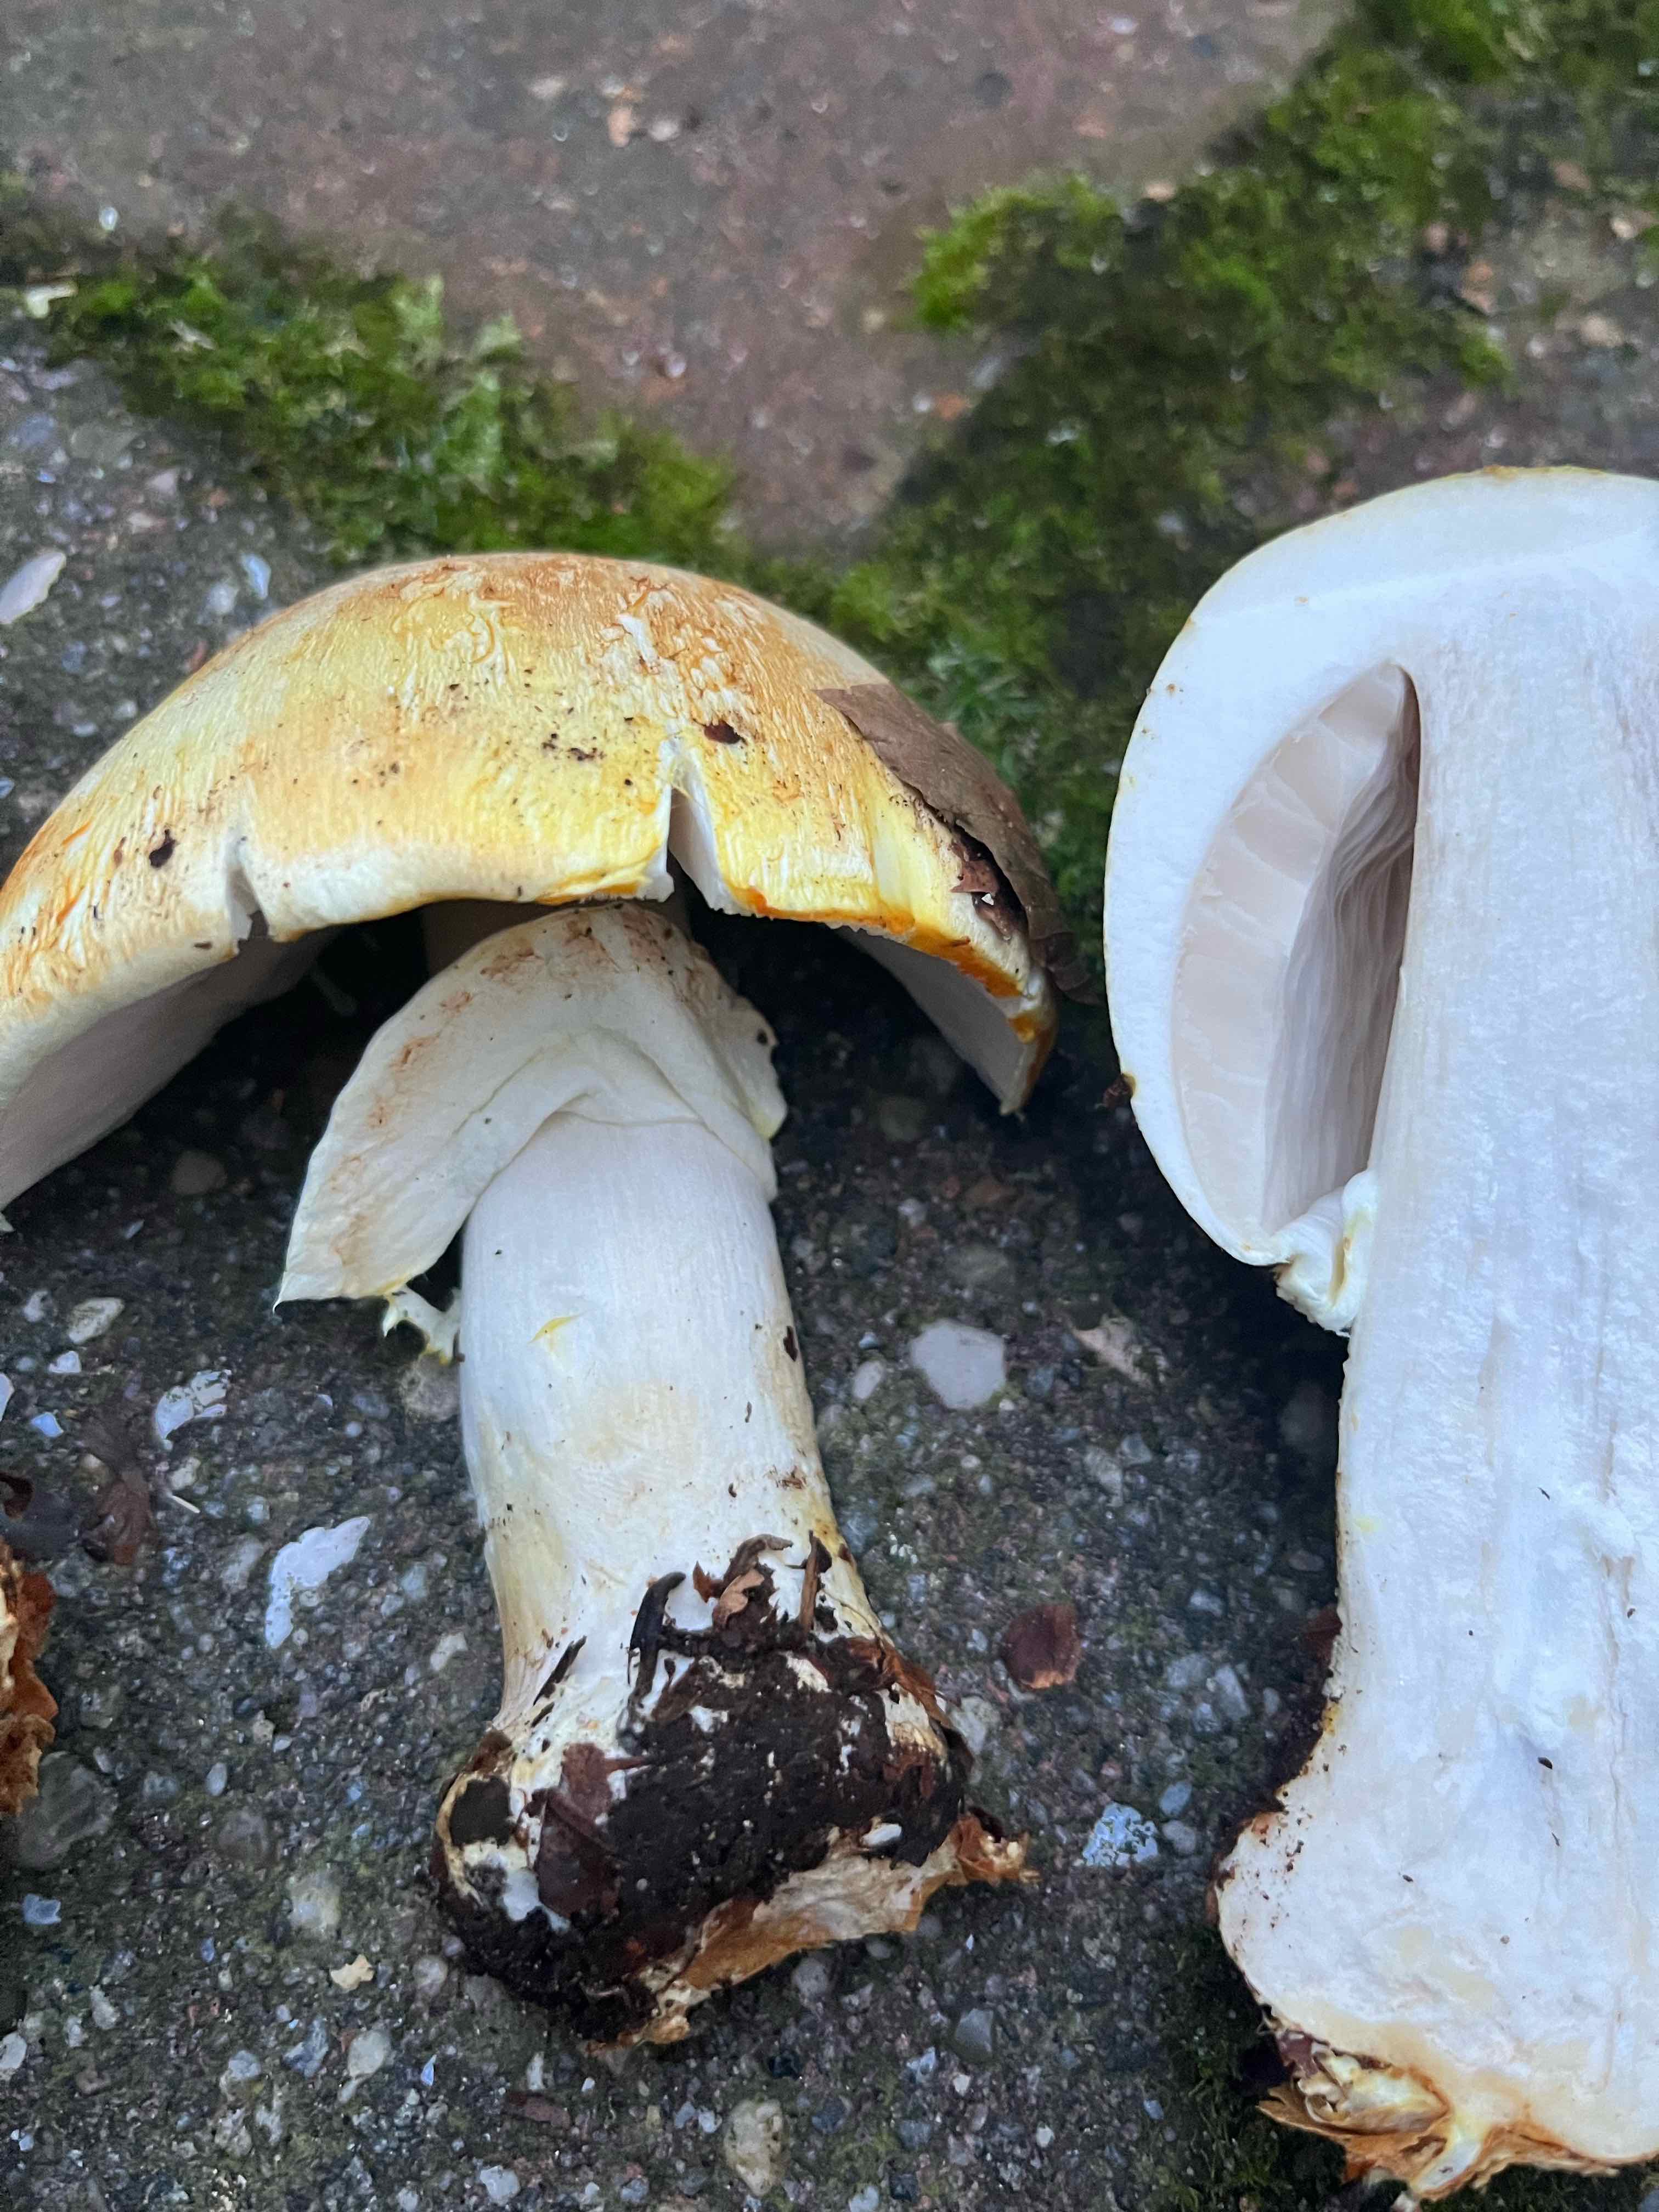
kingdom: Fungi
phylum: Basidiomycota
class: Agaricomycetes
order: Agaricales
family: Agaricaceae
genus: Agaricus
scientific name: Agaricus
